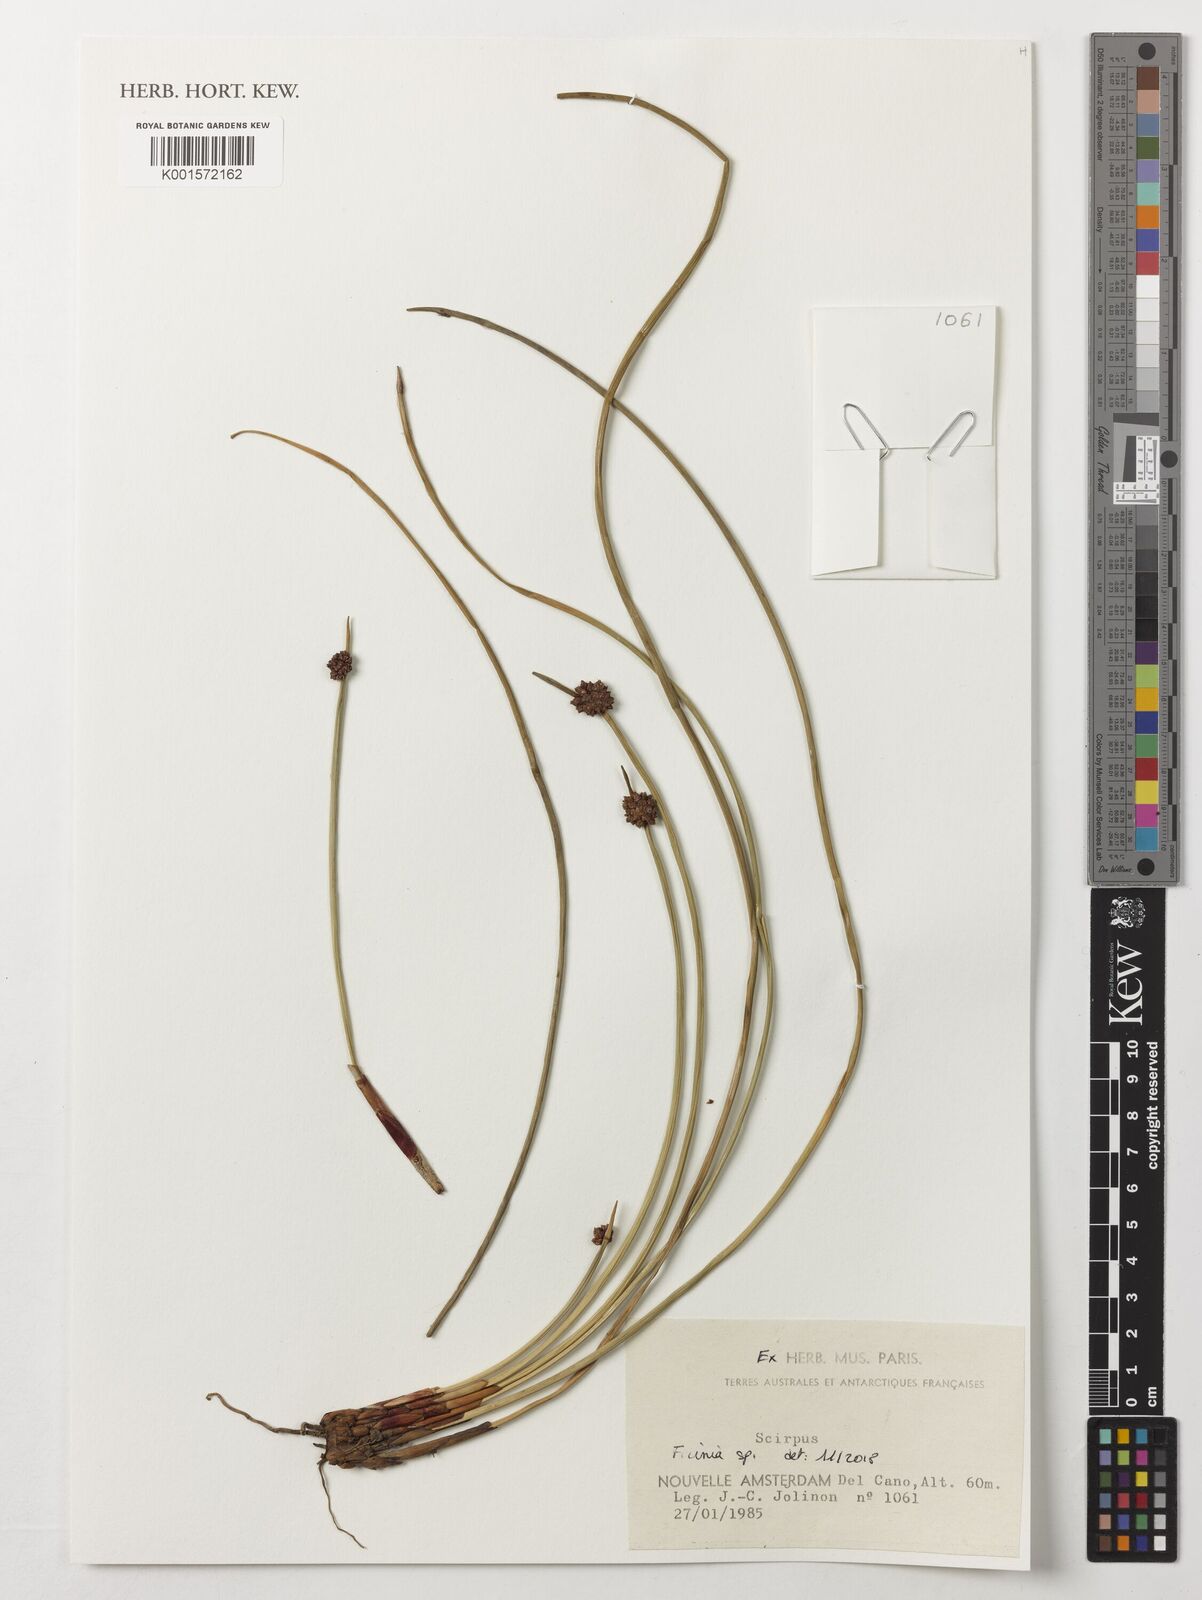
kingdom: Plantae
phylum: Tracheophyta
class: Liliopsida
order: Poales
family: Cyperaceae
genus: Ficinia
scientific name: Ficinia
